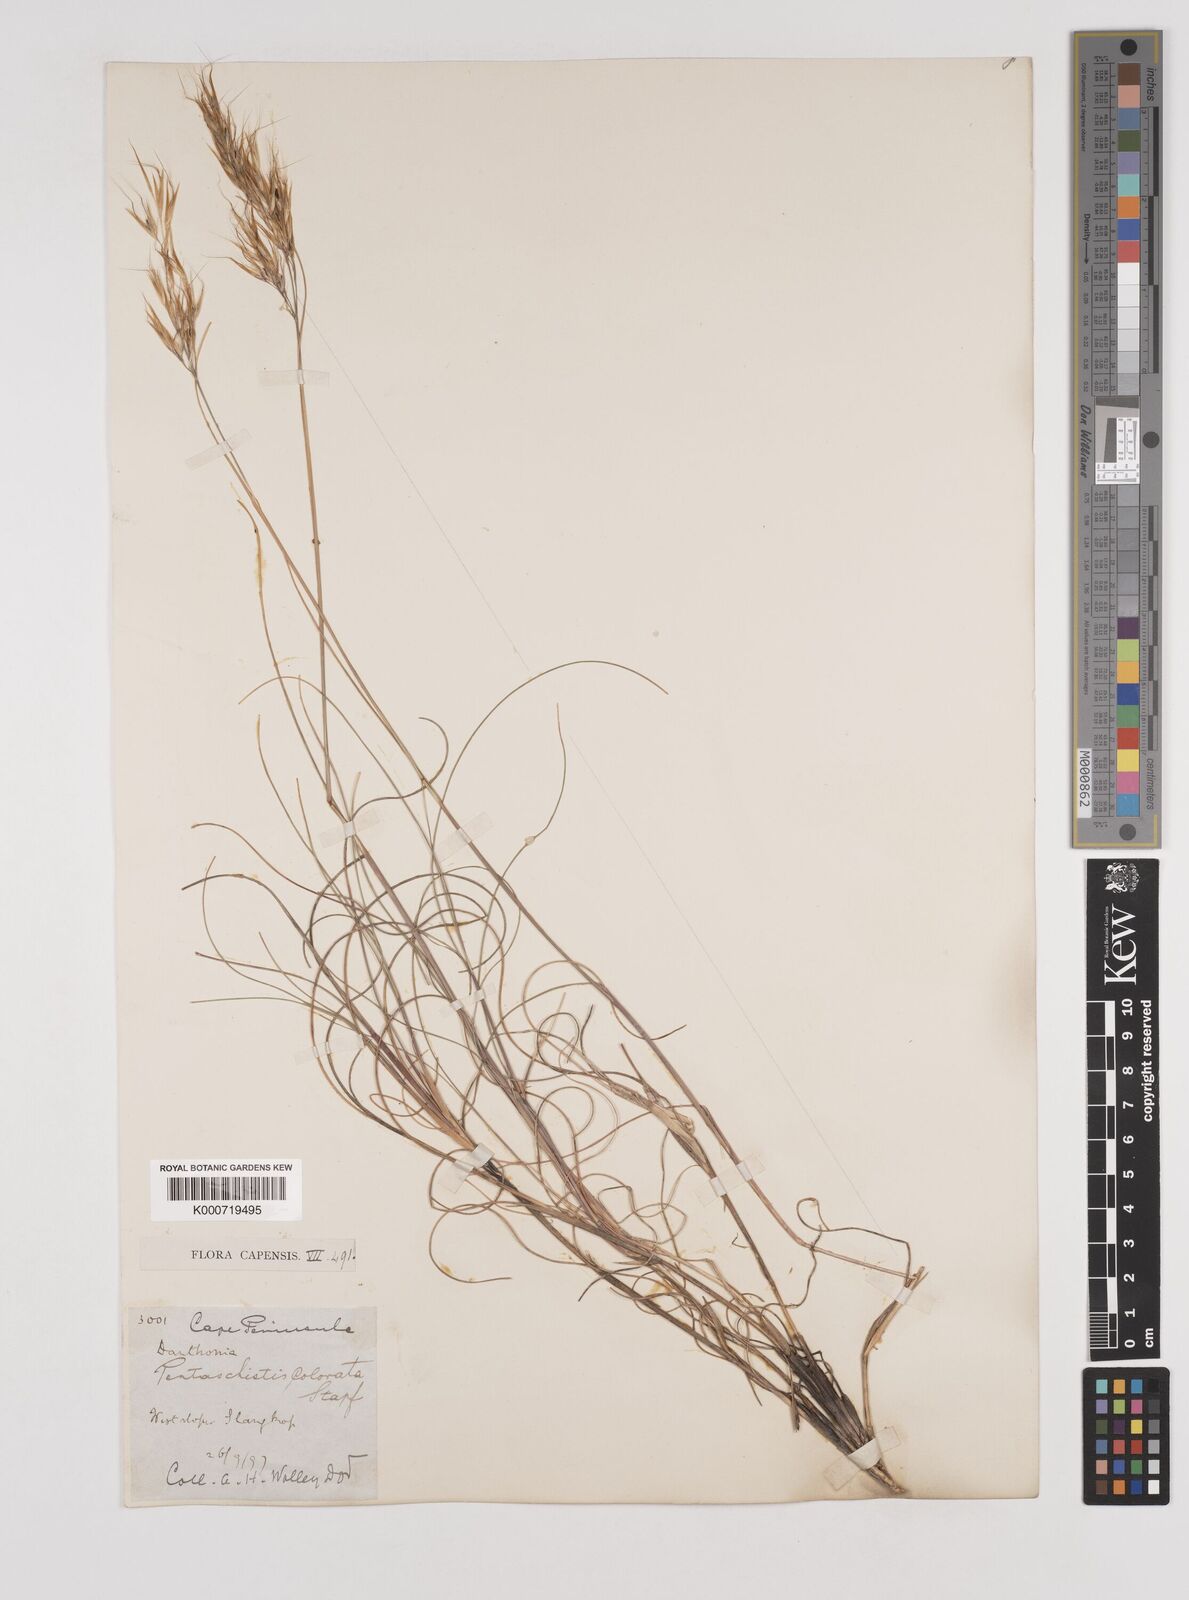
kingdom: Plantae
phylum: Tracheophyta
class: Liliopsida
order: Poales
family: Poaceae
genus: Pentameris
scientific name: Pentameris colorata
